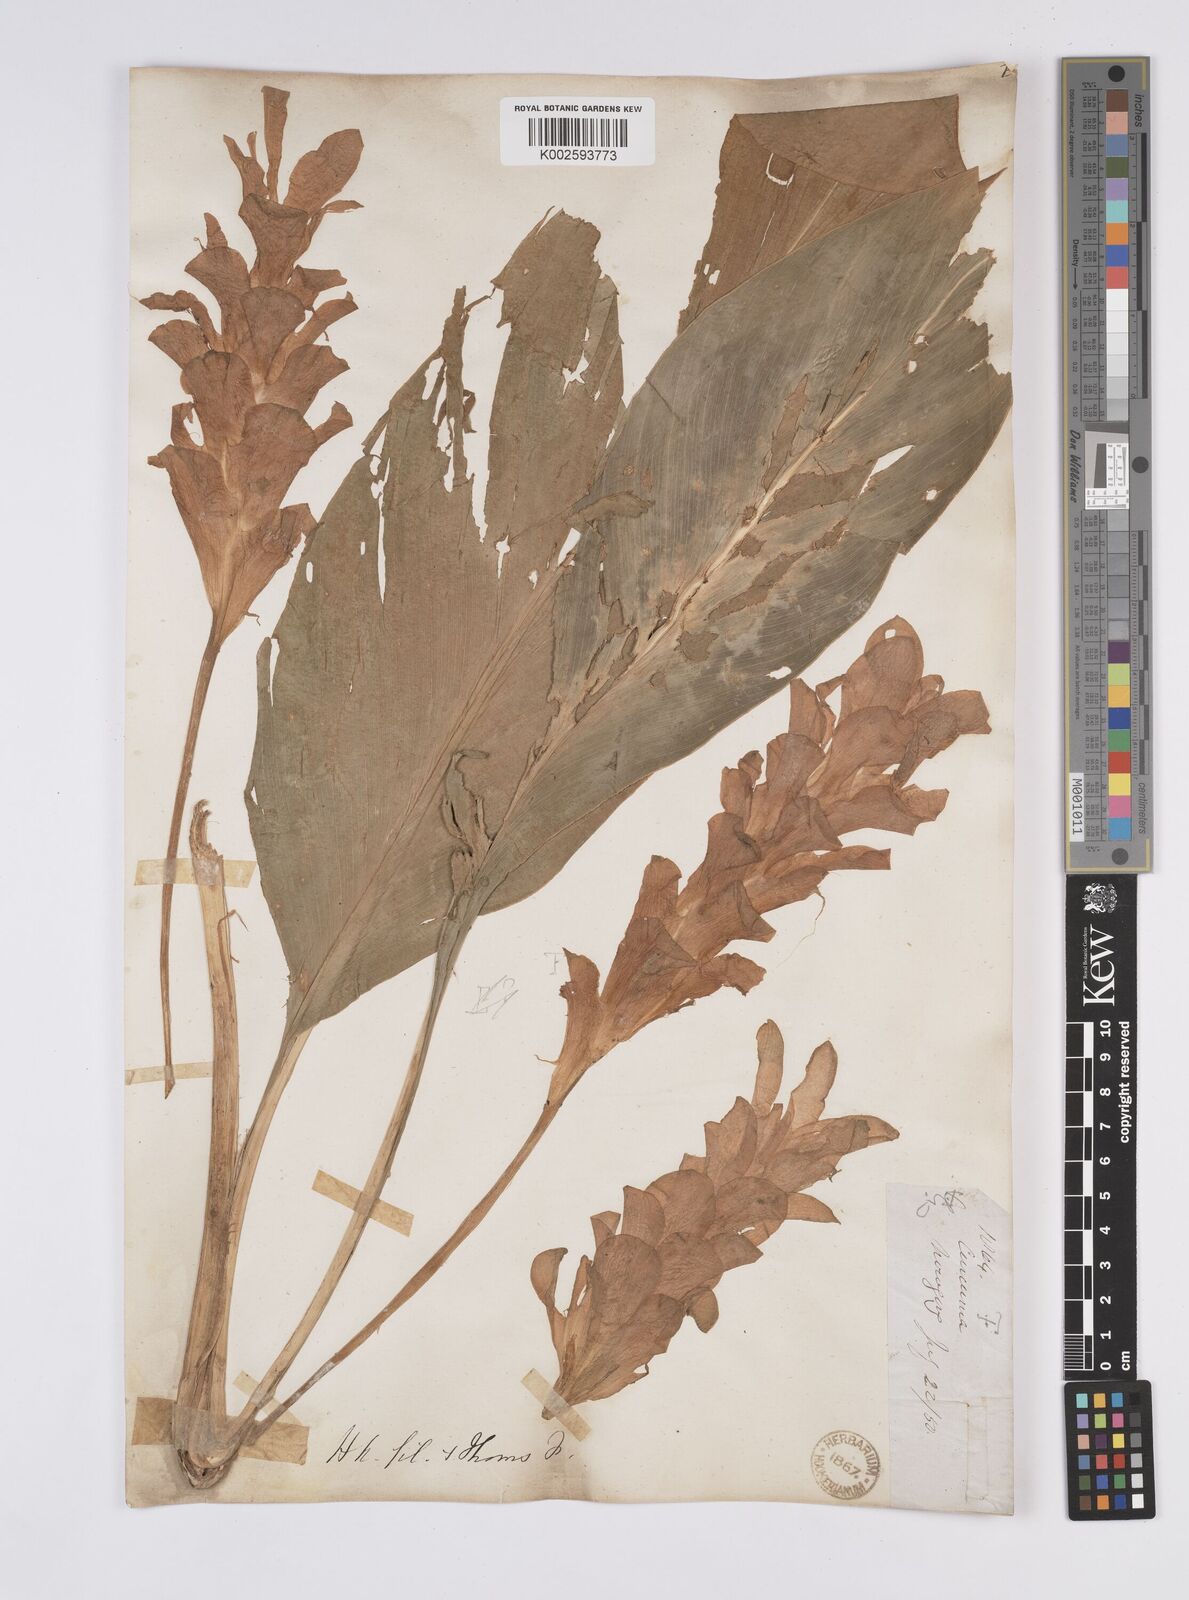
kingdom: Plantae
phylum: Tracheophyta
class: Liliopsida
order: Zingiberales
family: Zingiberaceae
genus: Curcuma
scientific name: Curcuma
